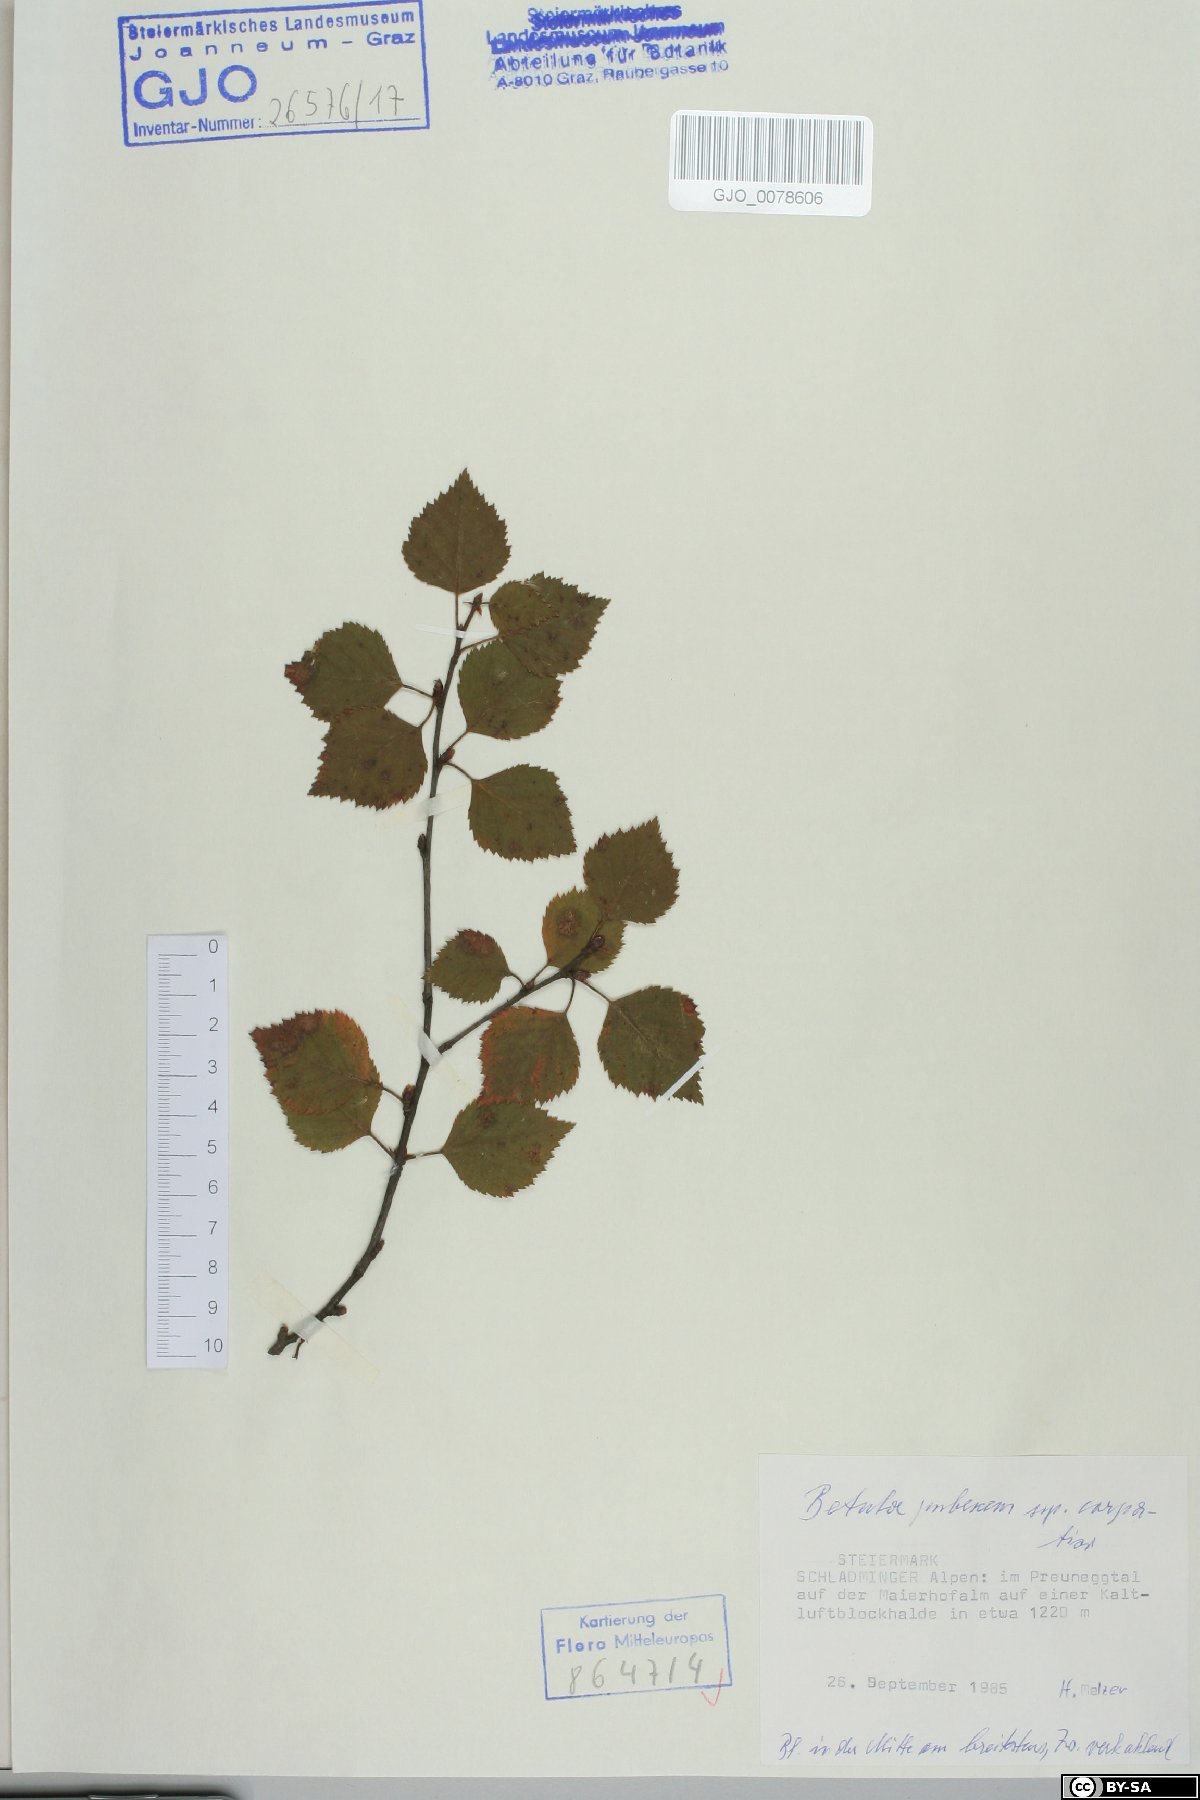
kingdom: Plantae
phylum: Tracheophyta
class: Magnoliopsida
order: Fagales
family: Betulaceae
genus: Betula
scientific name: Betula pubescens
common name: Downy birch
